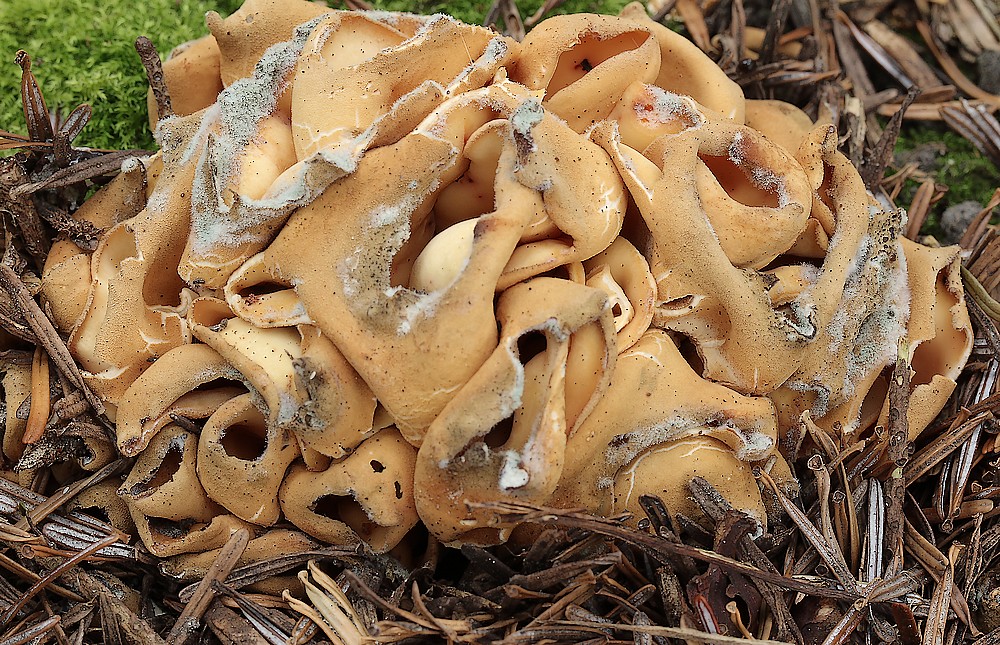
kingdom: Fungi
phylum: Ascomycota
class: Pezizomycetes
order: Pezizales
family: Otideaceae
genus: Otidea
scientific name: Otidea
